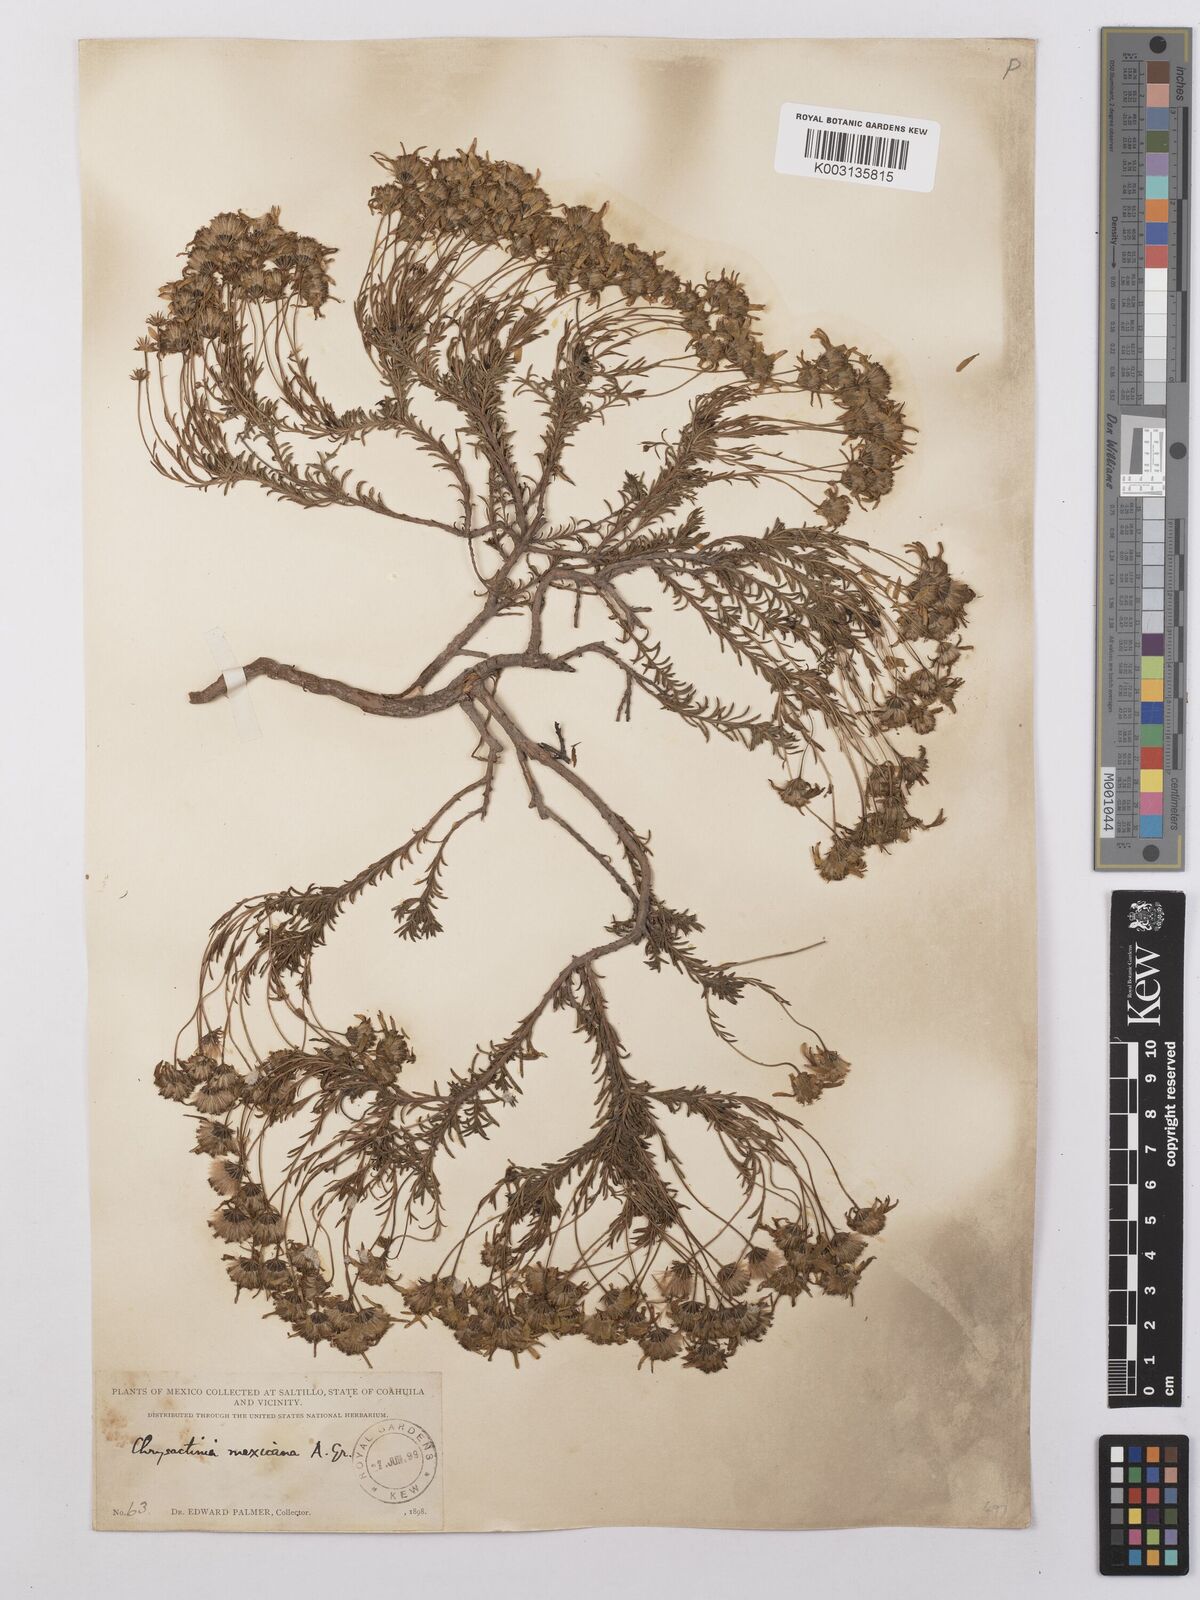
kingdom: Plantae
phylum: Tracheophyta
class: Magnoliopsida
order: Asterales
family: Asteraceae
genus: Chrysactinia
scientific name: Chrysactinia mexicana
